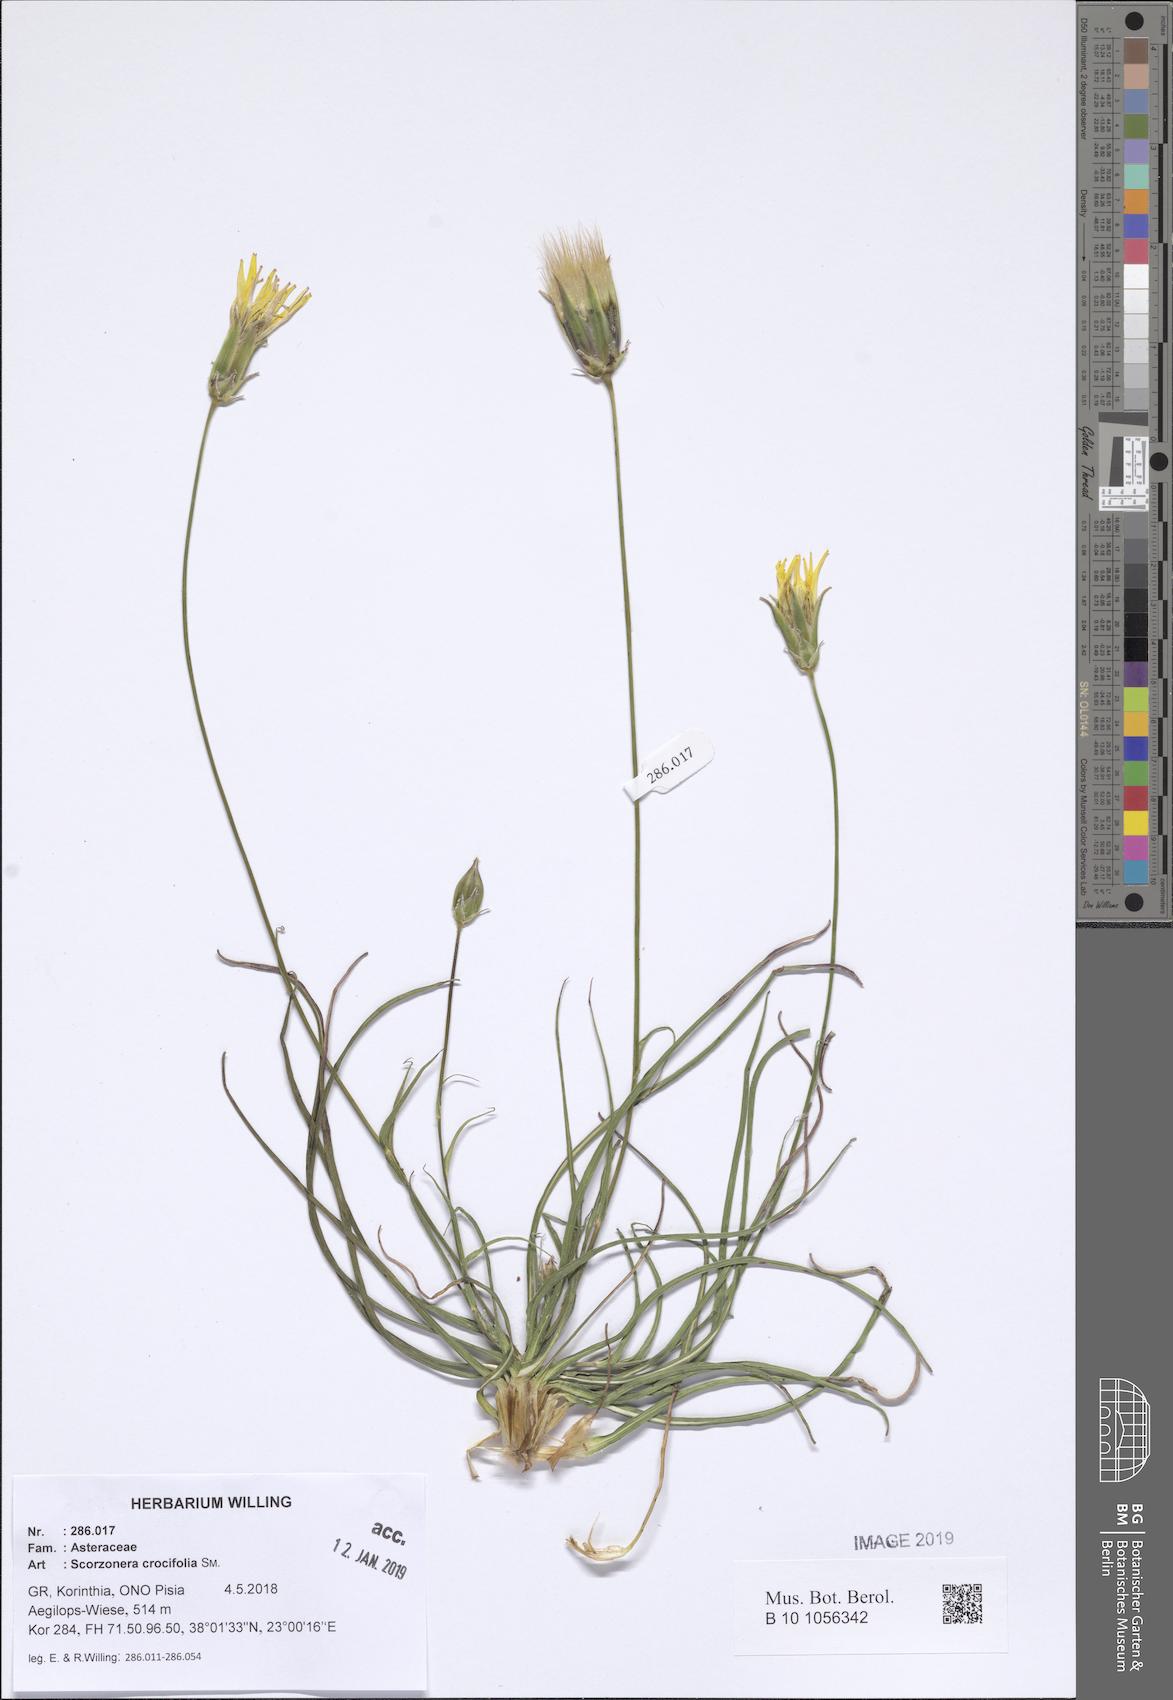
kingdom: Plantae
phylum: Tracheophyta
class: Magnoliopsida
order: Asterales
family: Asteraceae
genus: Pseudopodospermum
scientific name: Pseudopodospermum crocifolium
